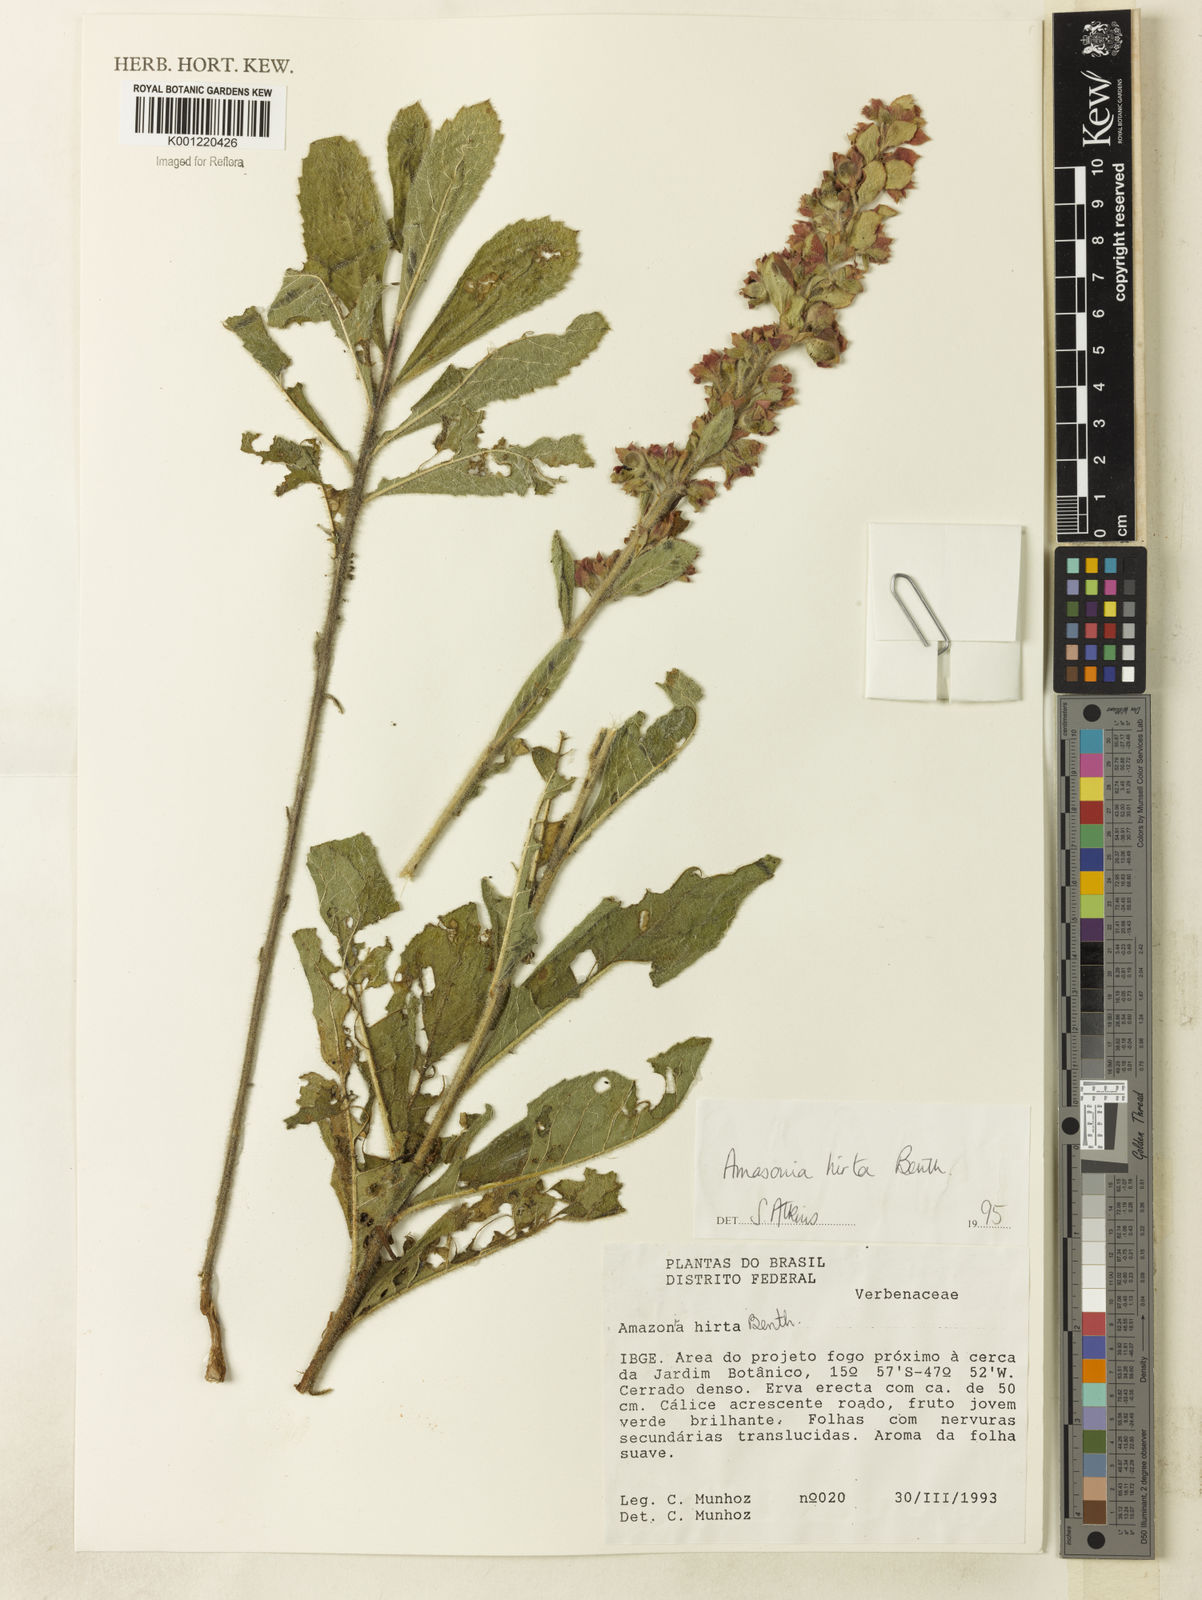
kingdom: Plantae
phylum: Tracheophyta
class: Magnoliopsida
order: Lamiales
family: Lamiaceae
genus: Amasonia
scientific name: Amasonia hirta
